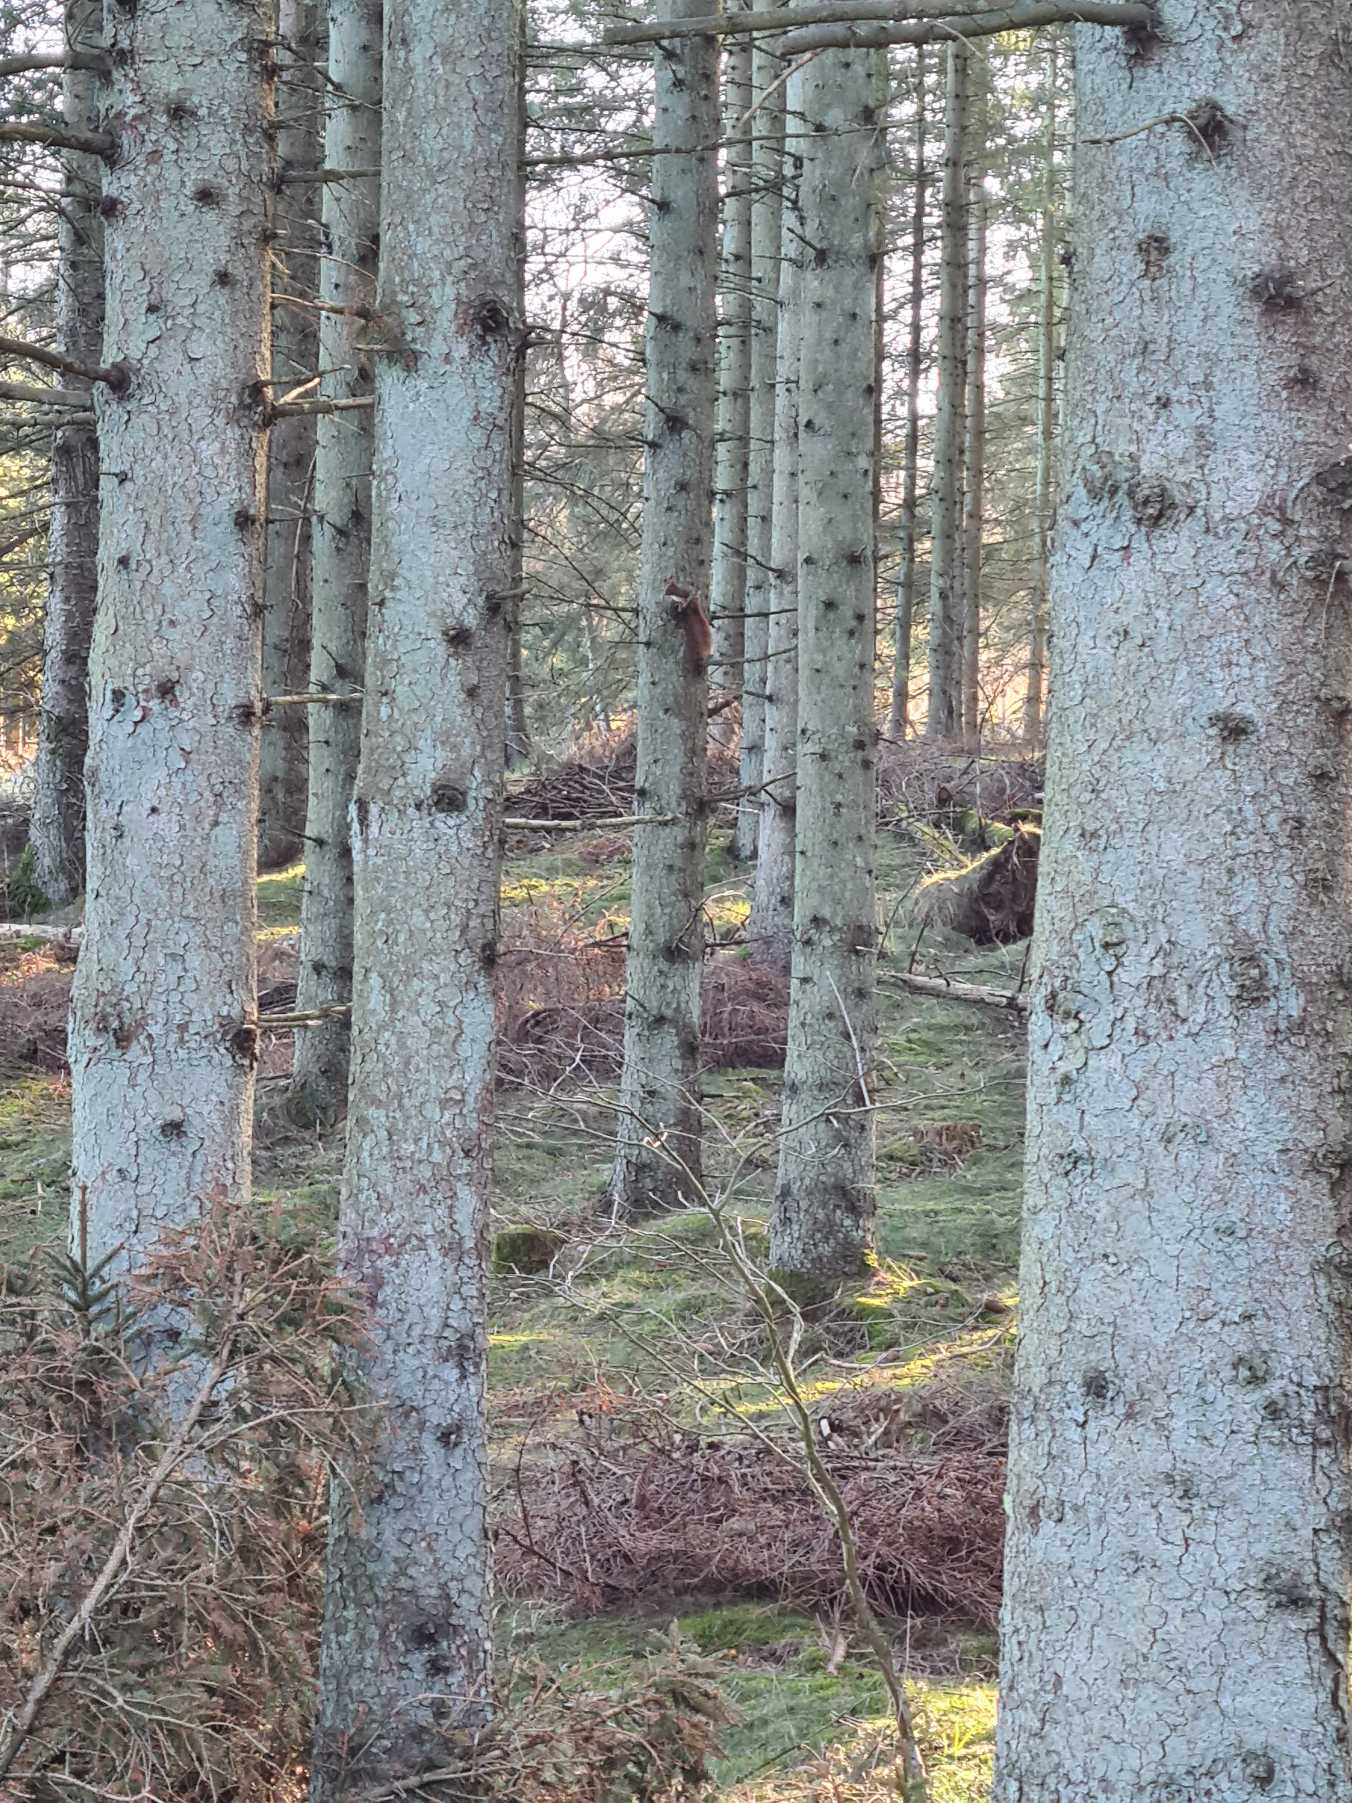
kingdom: Animalia
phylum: Chordata
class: Mammalia
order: Rodentia
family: Sciuridae
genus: Sciurus
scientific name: Sciurus vulgaris
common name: Egern
